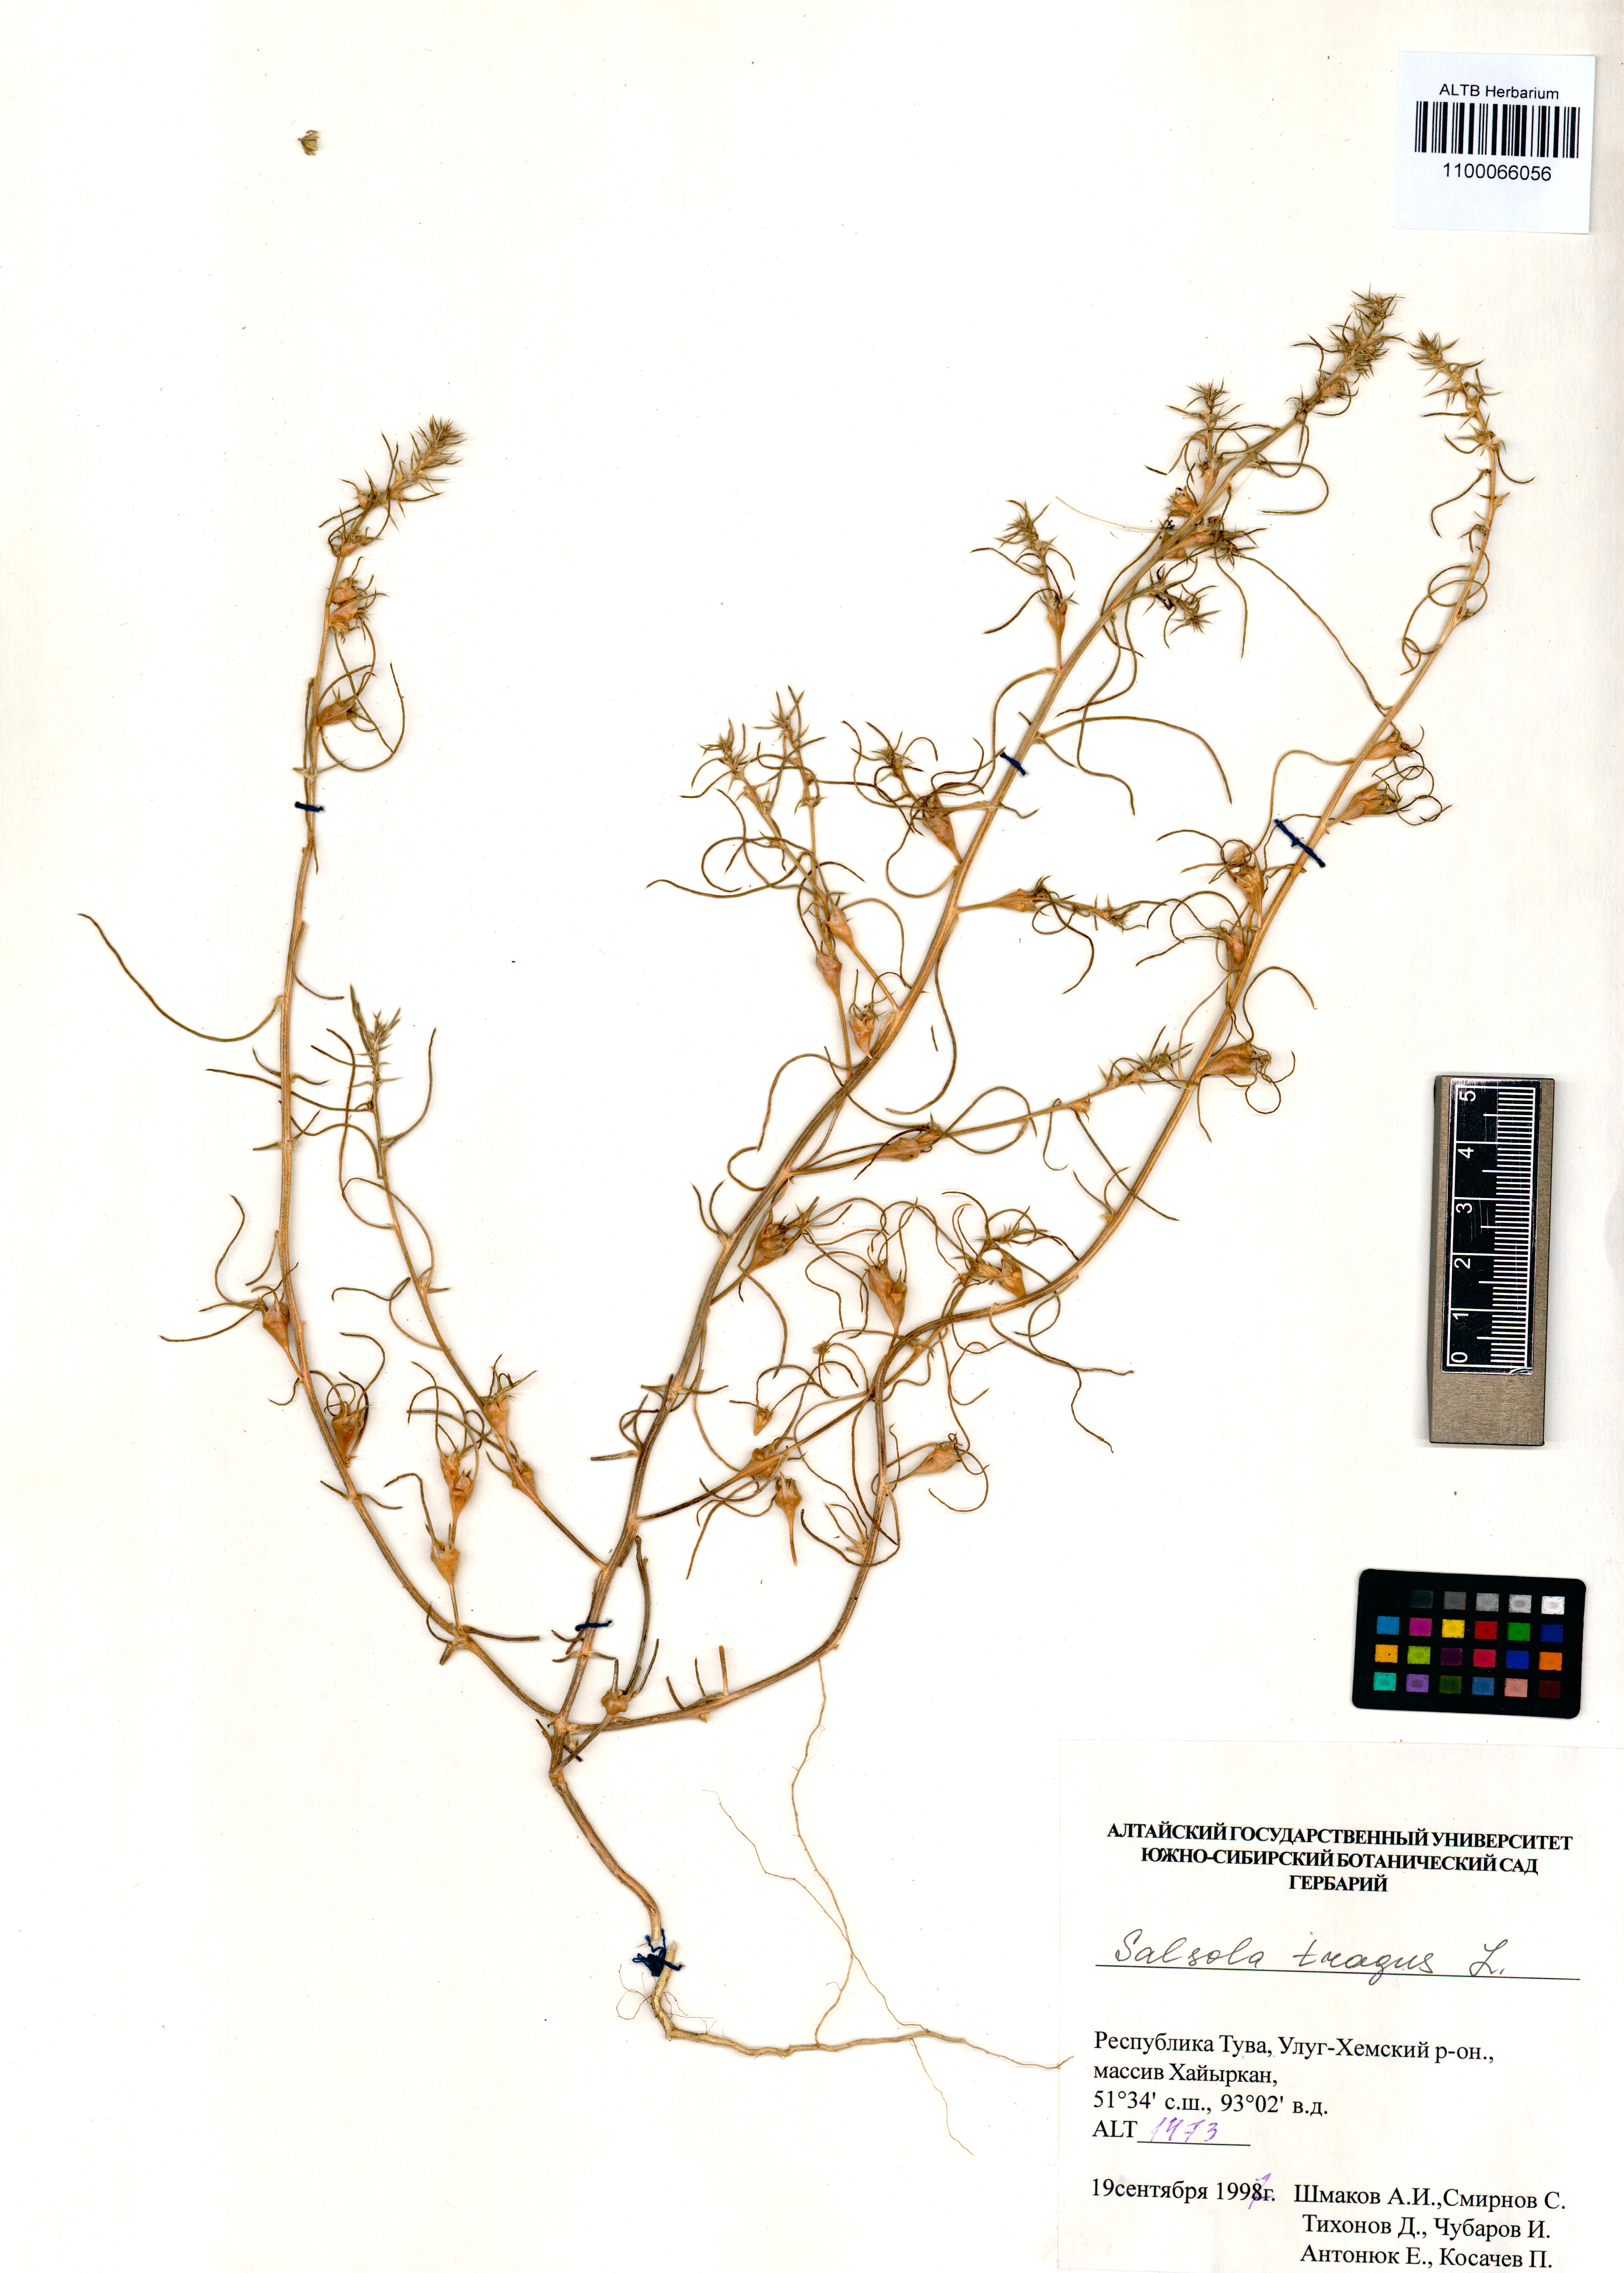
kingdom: Plantae
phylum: Tracheophyta
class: Magnoliopsida
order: Caryophyllales
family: Amaranthaceae
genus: Salsola
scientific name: Salsola tragus
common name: Prickly russian thistle
